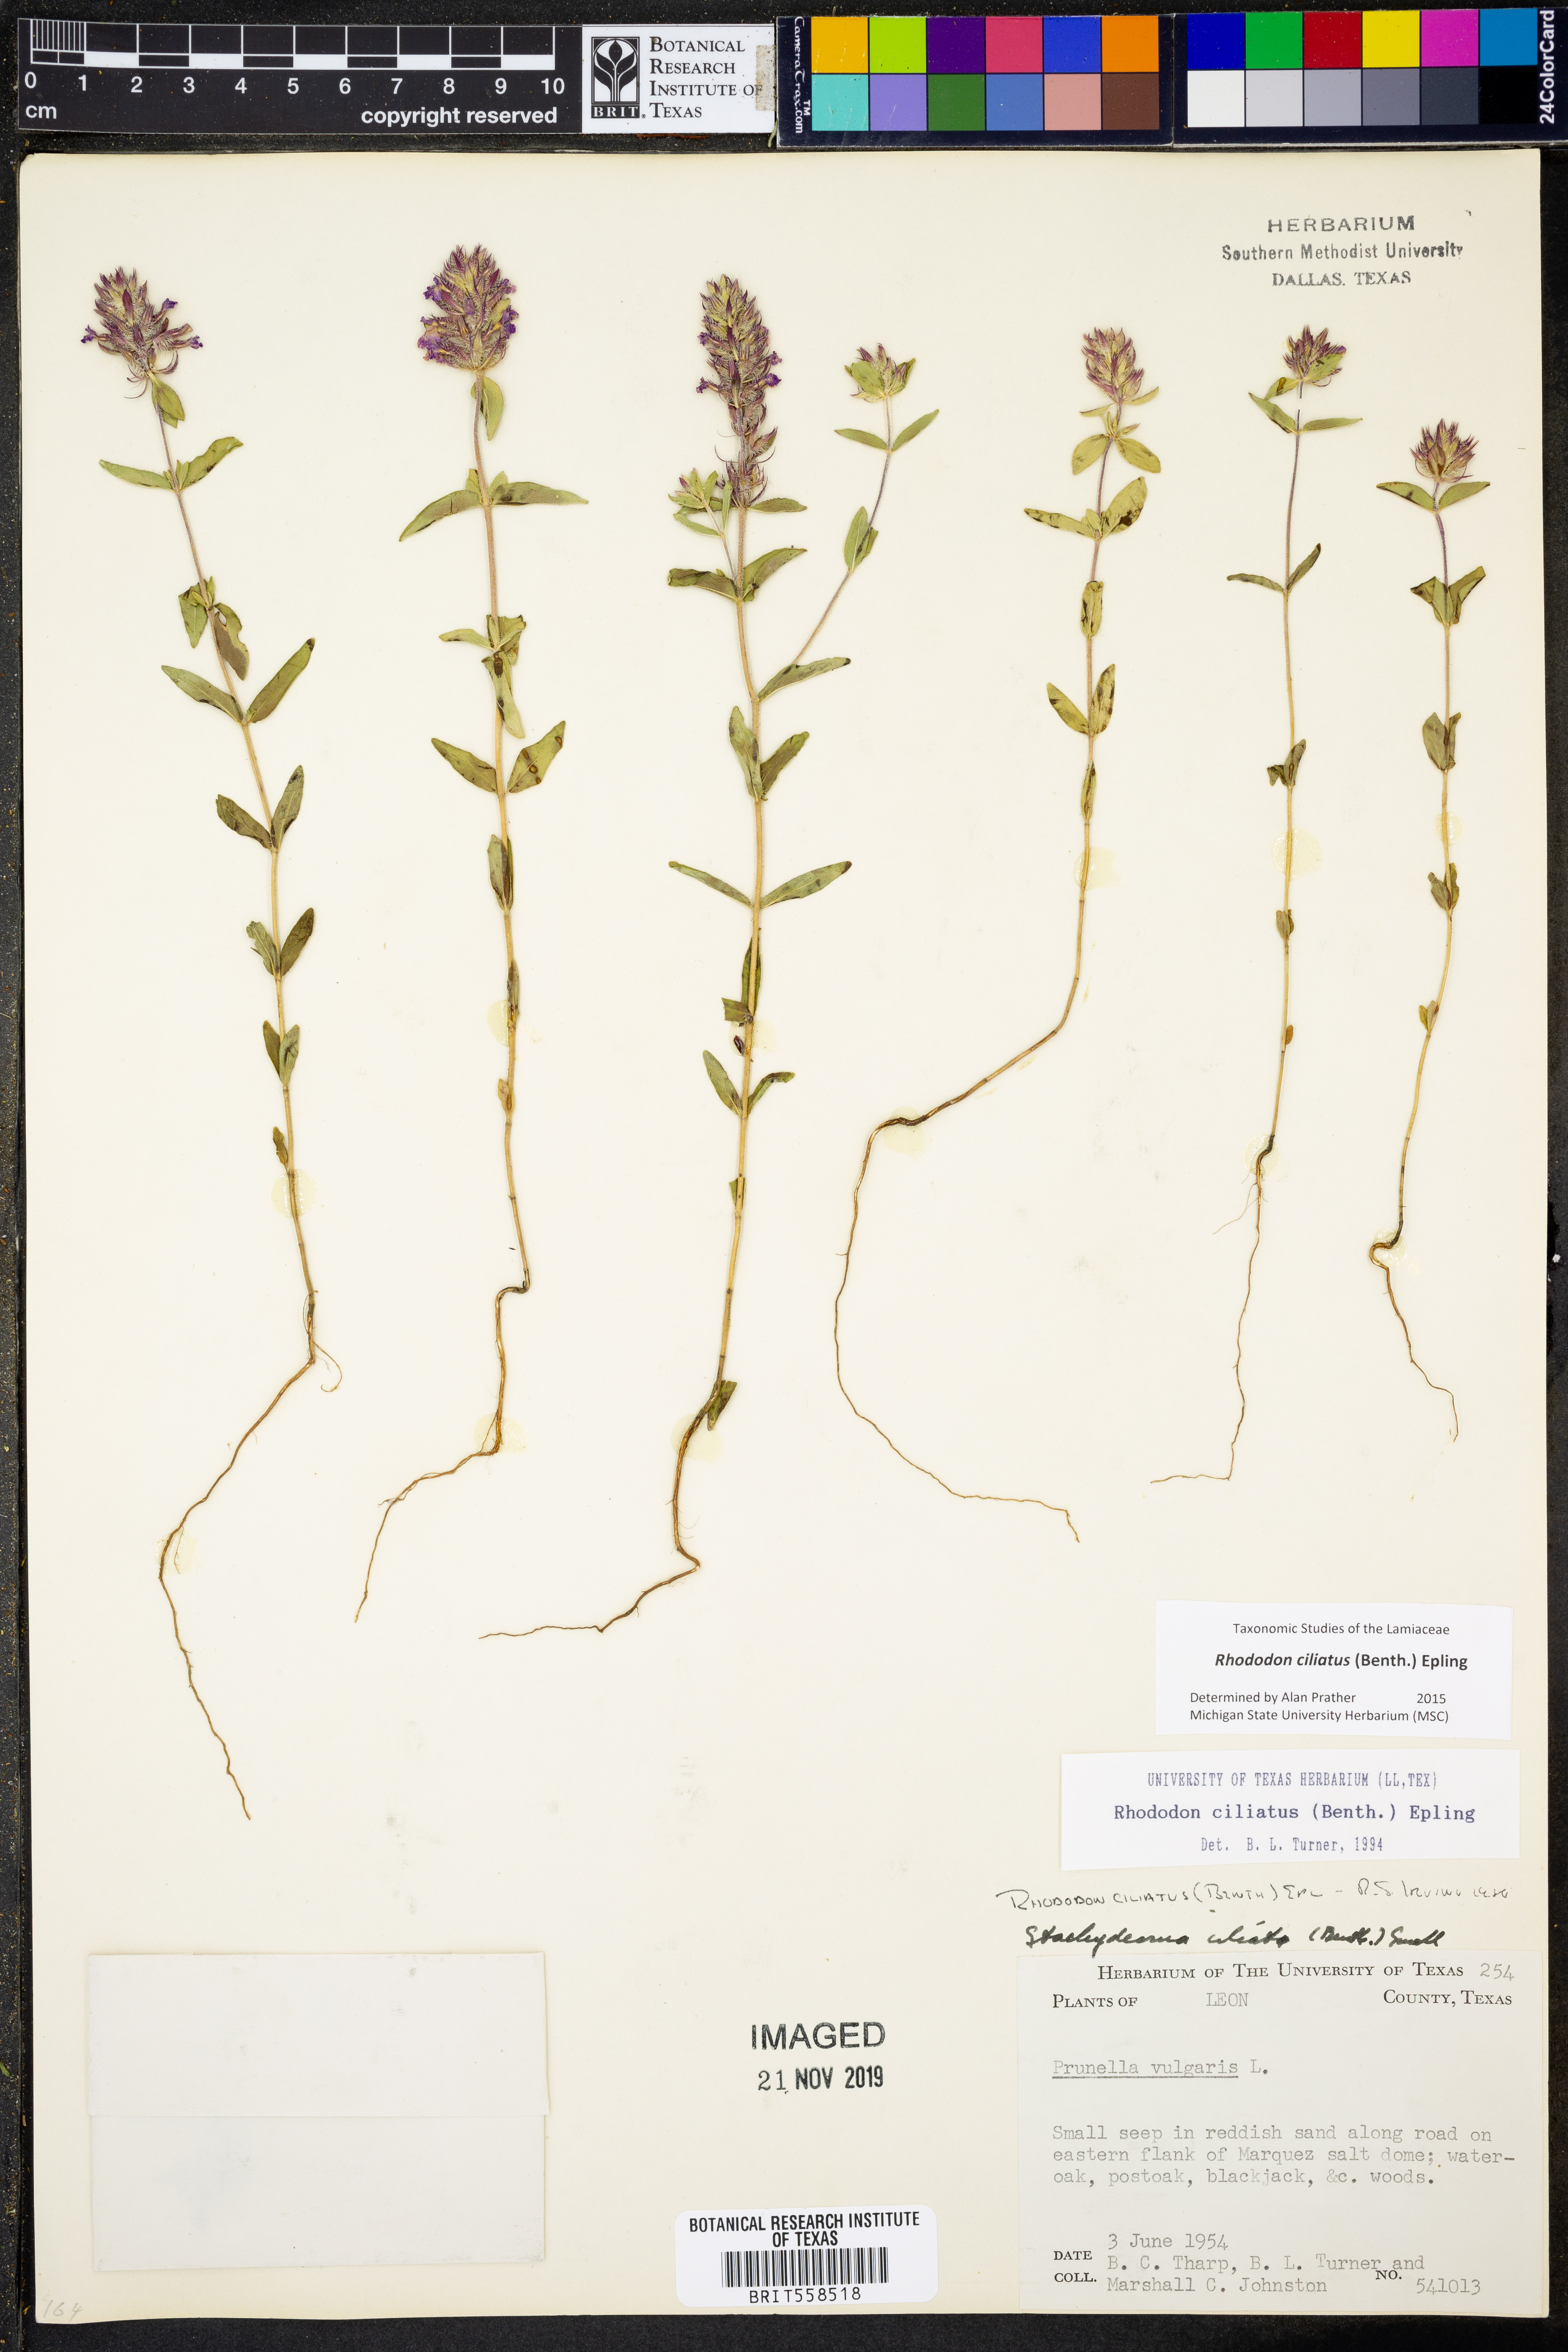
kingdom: Plantae
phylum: Tracheophyta
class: Magnoliopsida
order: Lamiales
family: Lamiaceae
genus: Rhododon
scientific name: Rhododon ciliatus
